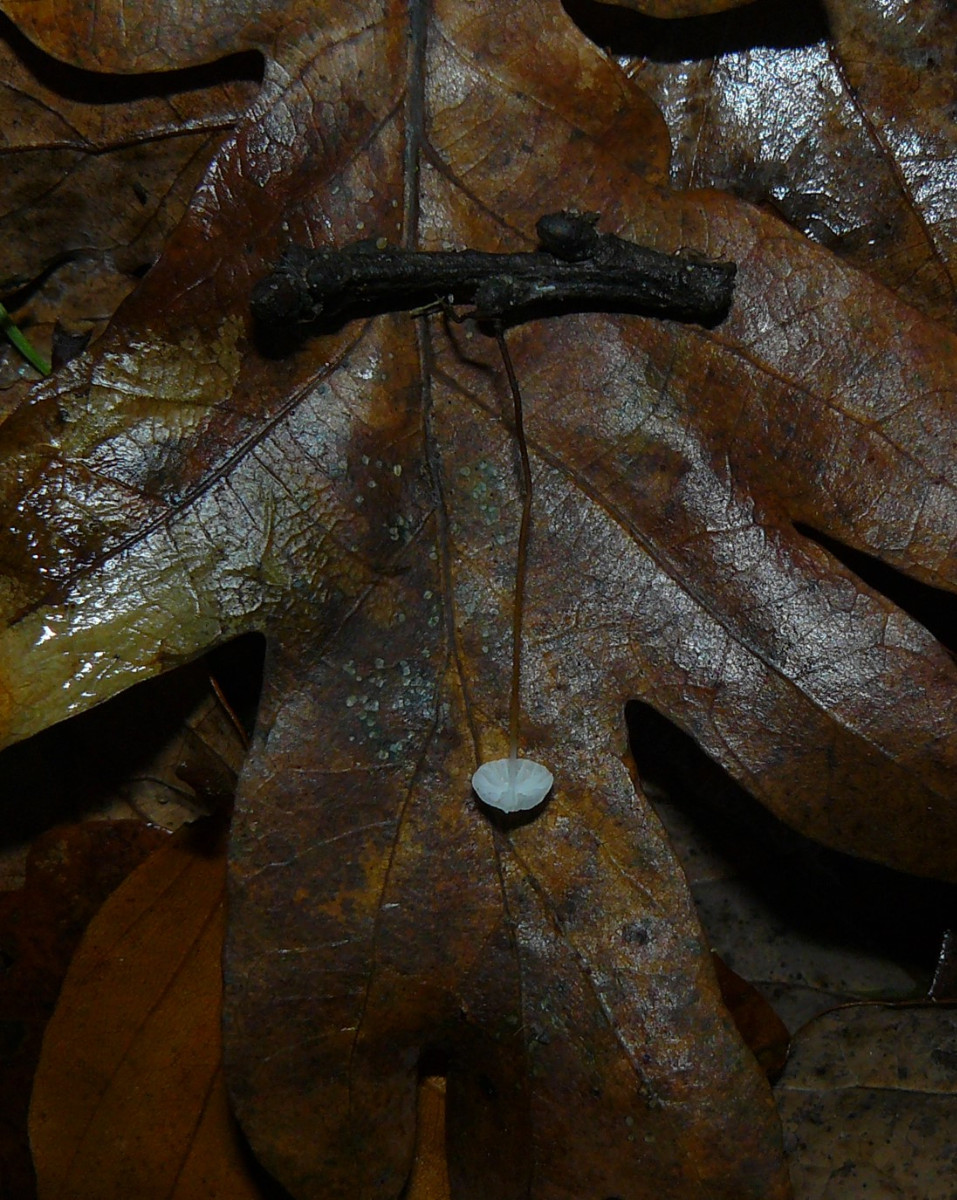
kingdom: Fungi
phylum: Basidiomycota
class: Agaricomycetes
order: Agaricales
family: Marasmiaceae
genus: Marasmius
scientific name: Marasmius
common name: bruskhat
